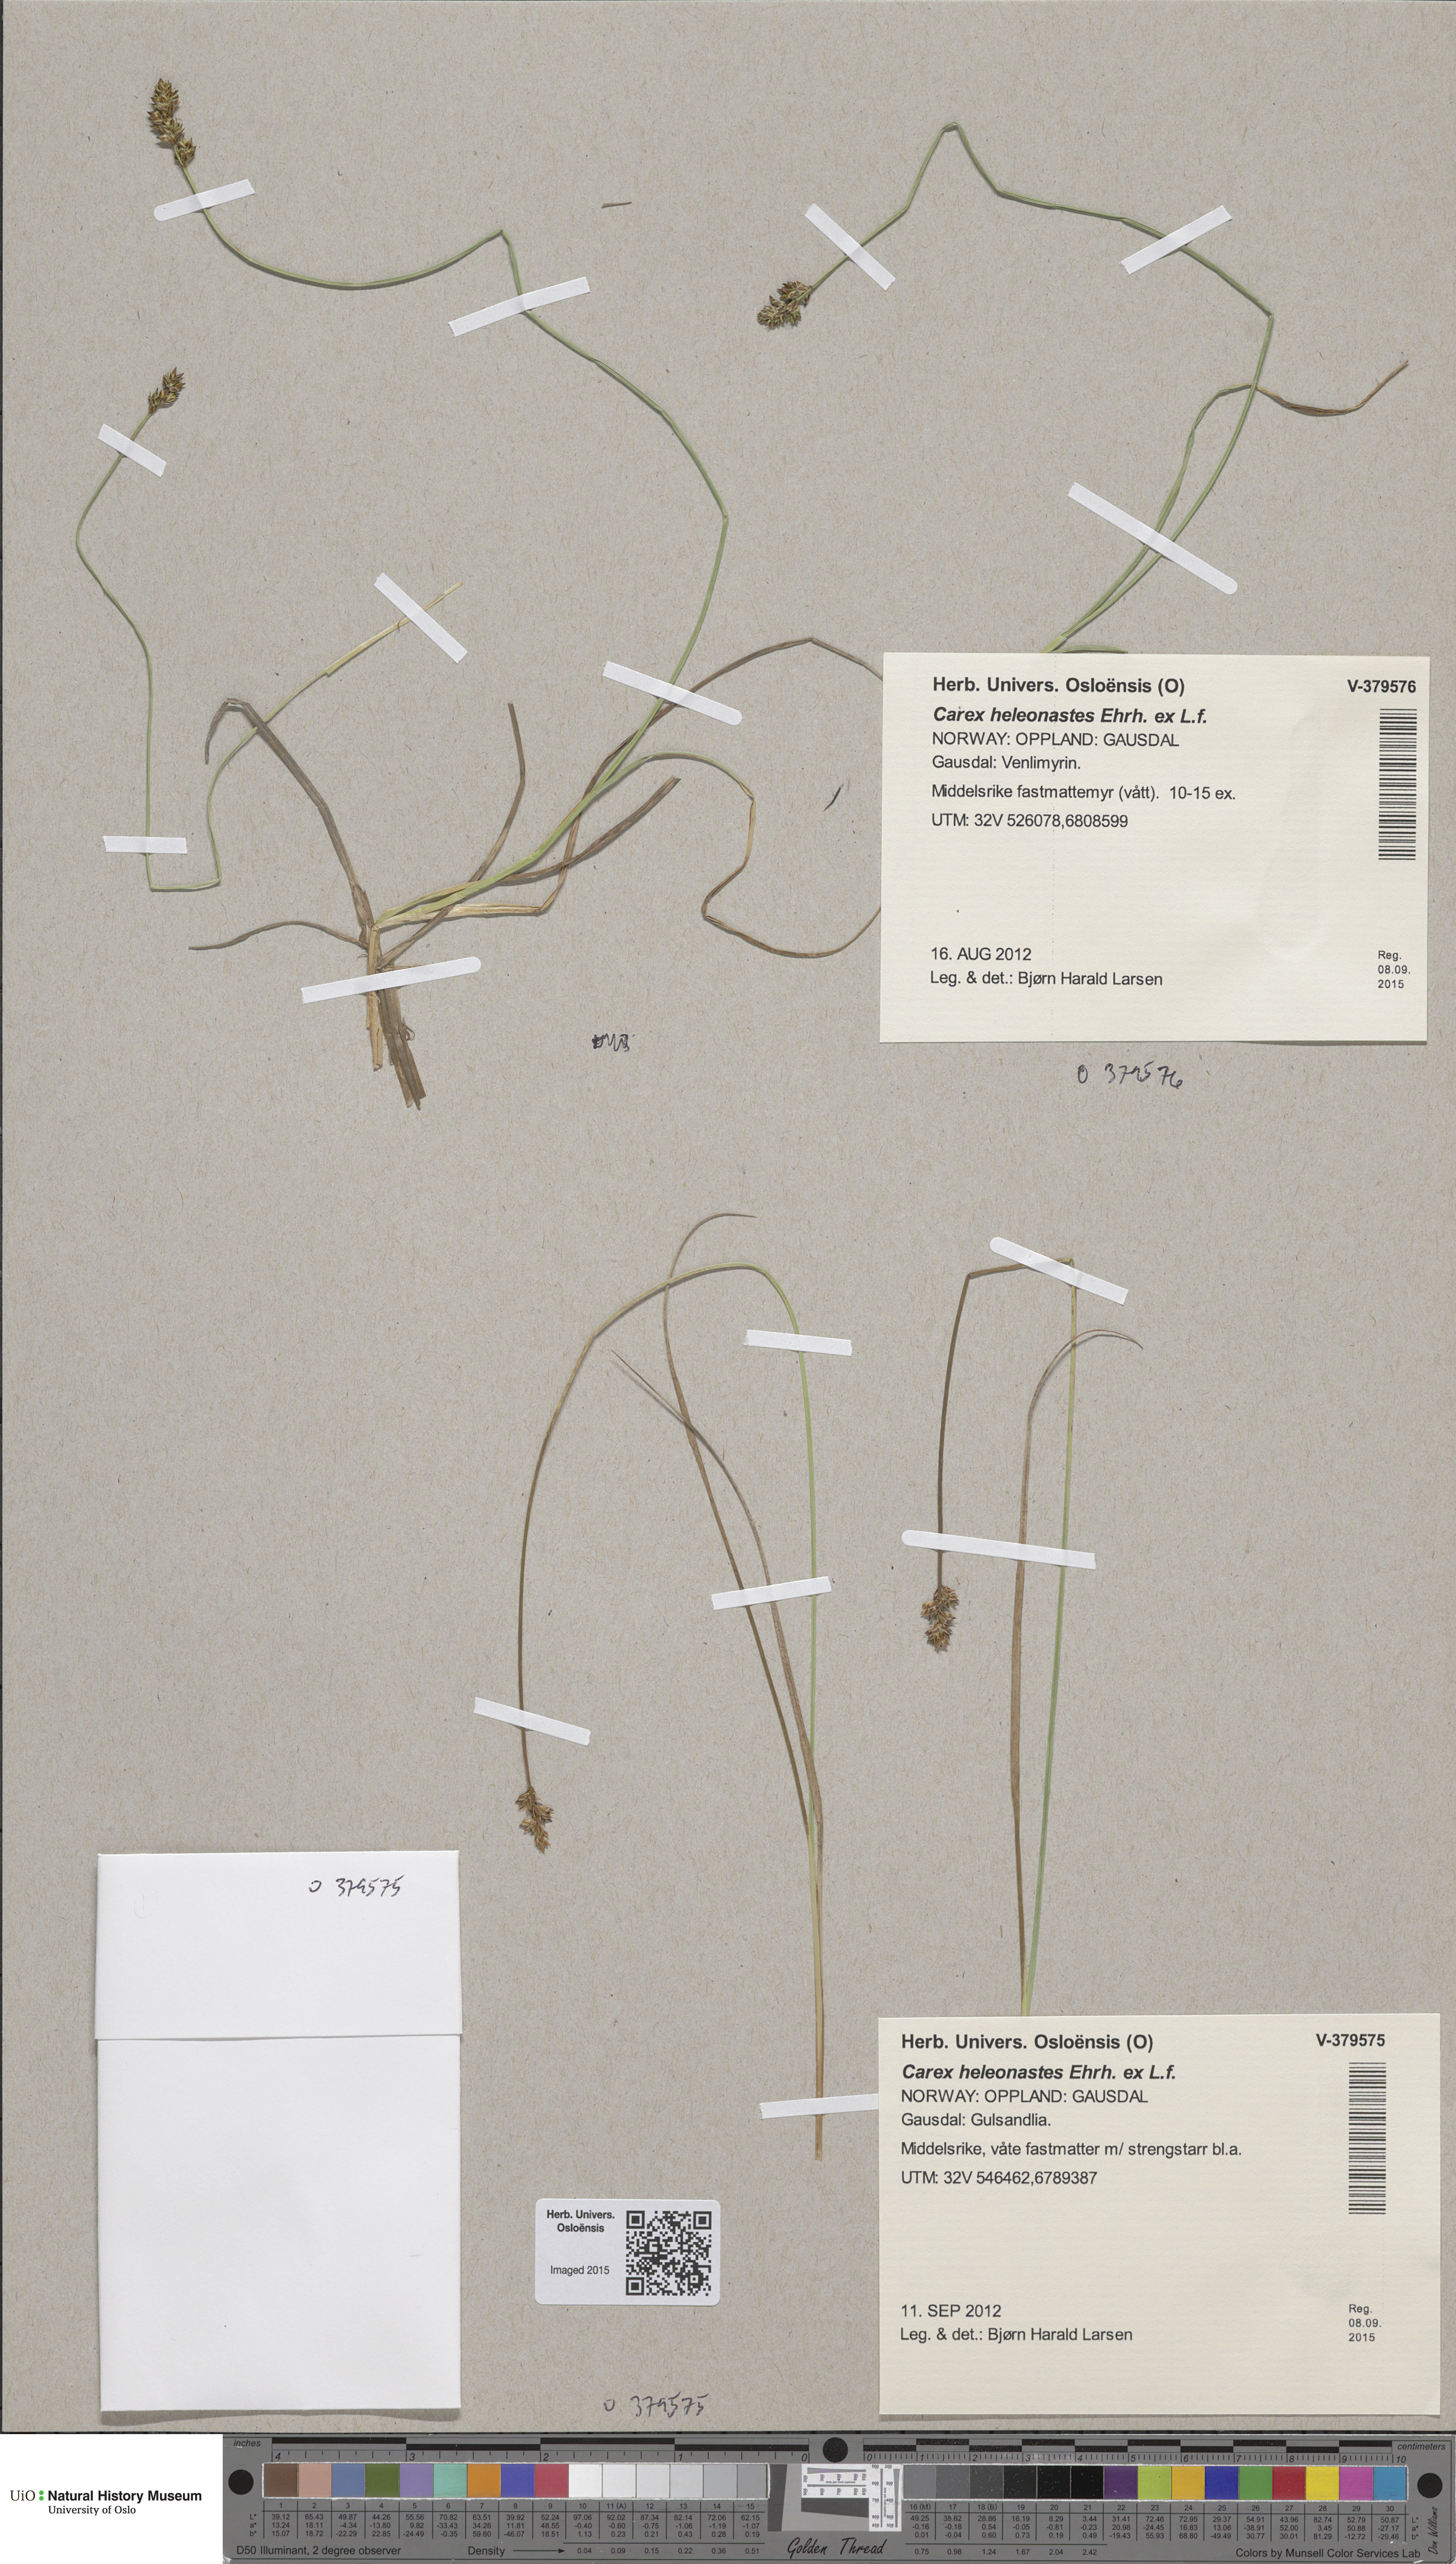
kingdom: Plantae
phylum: Tracheophyta
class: Liliopsida
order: Poales
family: Cyperaceae
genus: Carex
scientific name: Carex heleonastes
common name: Hudson bay sedge
